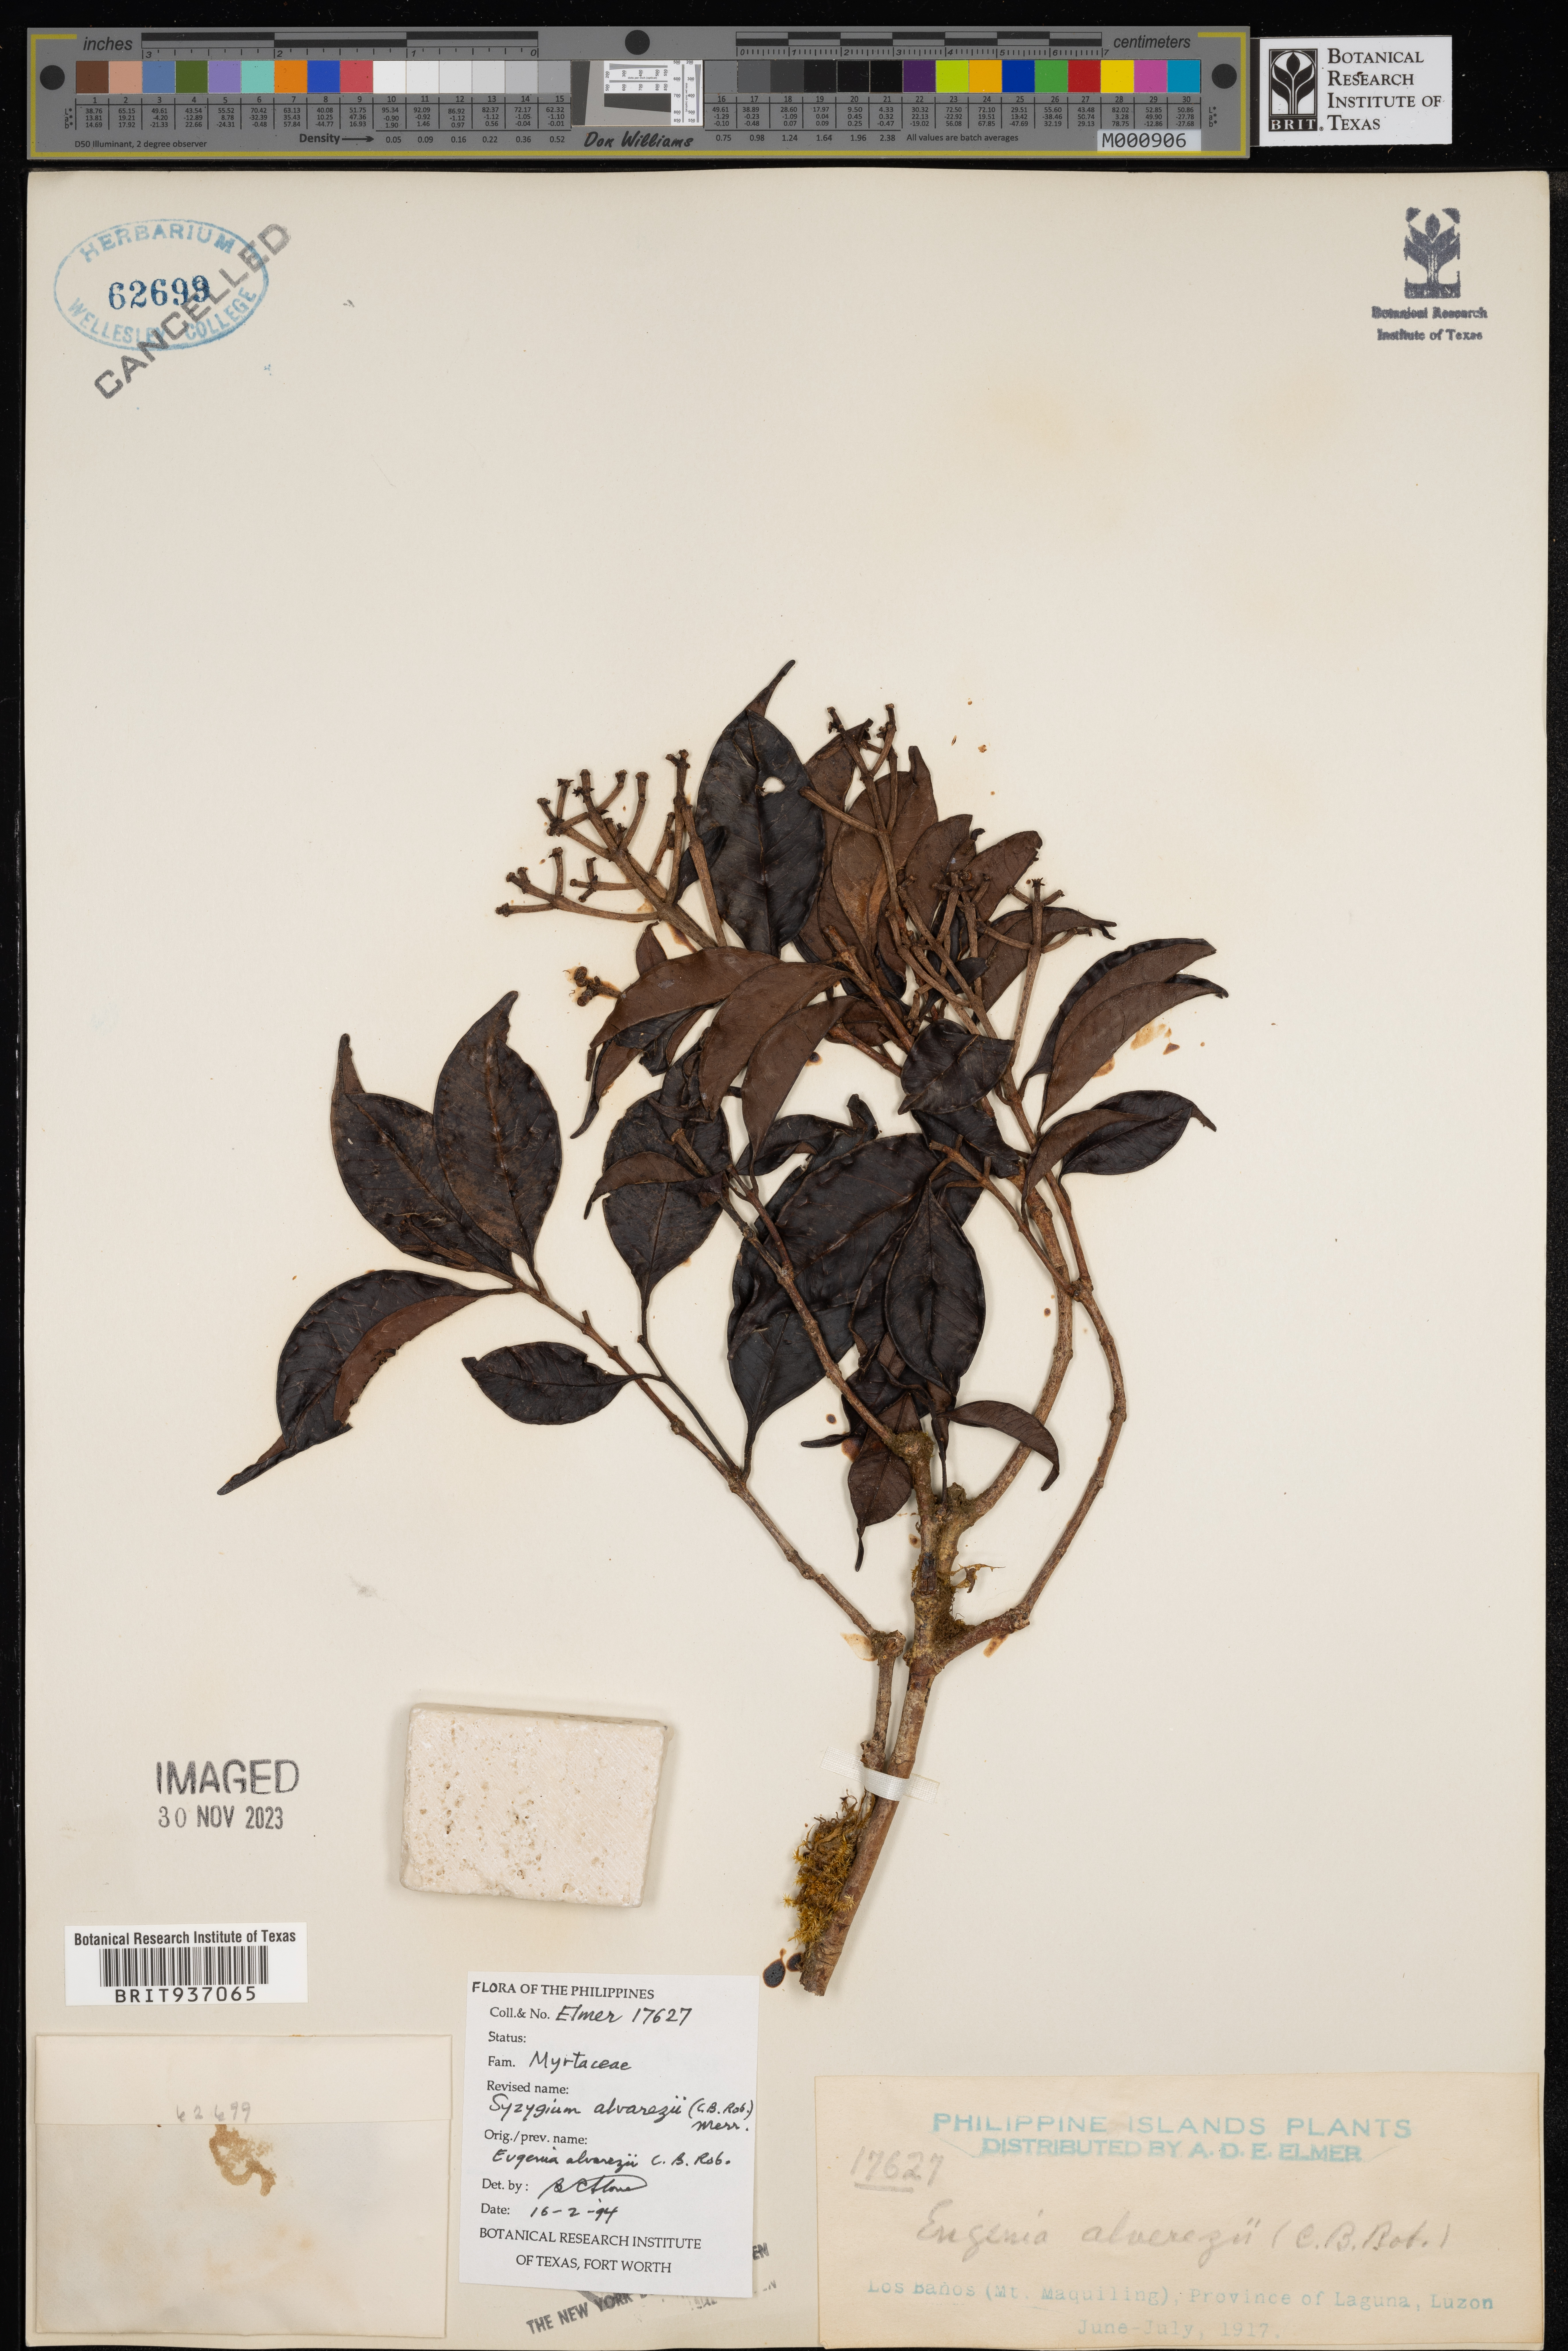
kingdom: Plantae
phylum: Tracheophyta
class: Magnoliopsida
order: Myrtales
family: Myrtaceae
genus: Syzygium
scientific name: Syzygium
